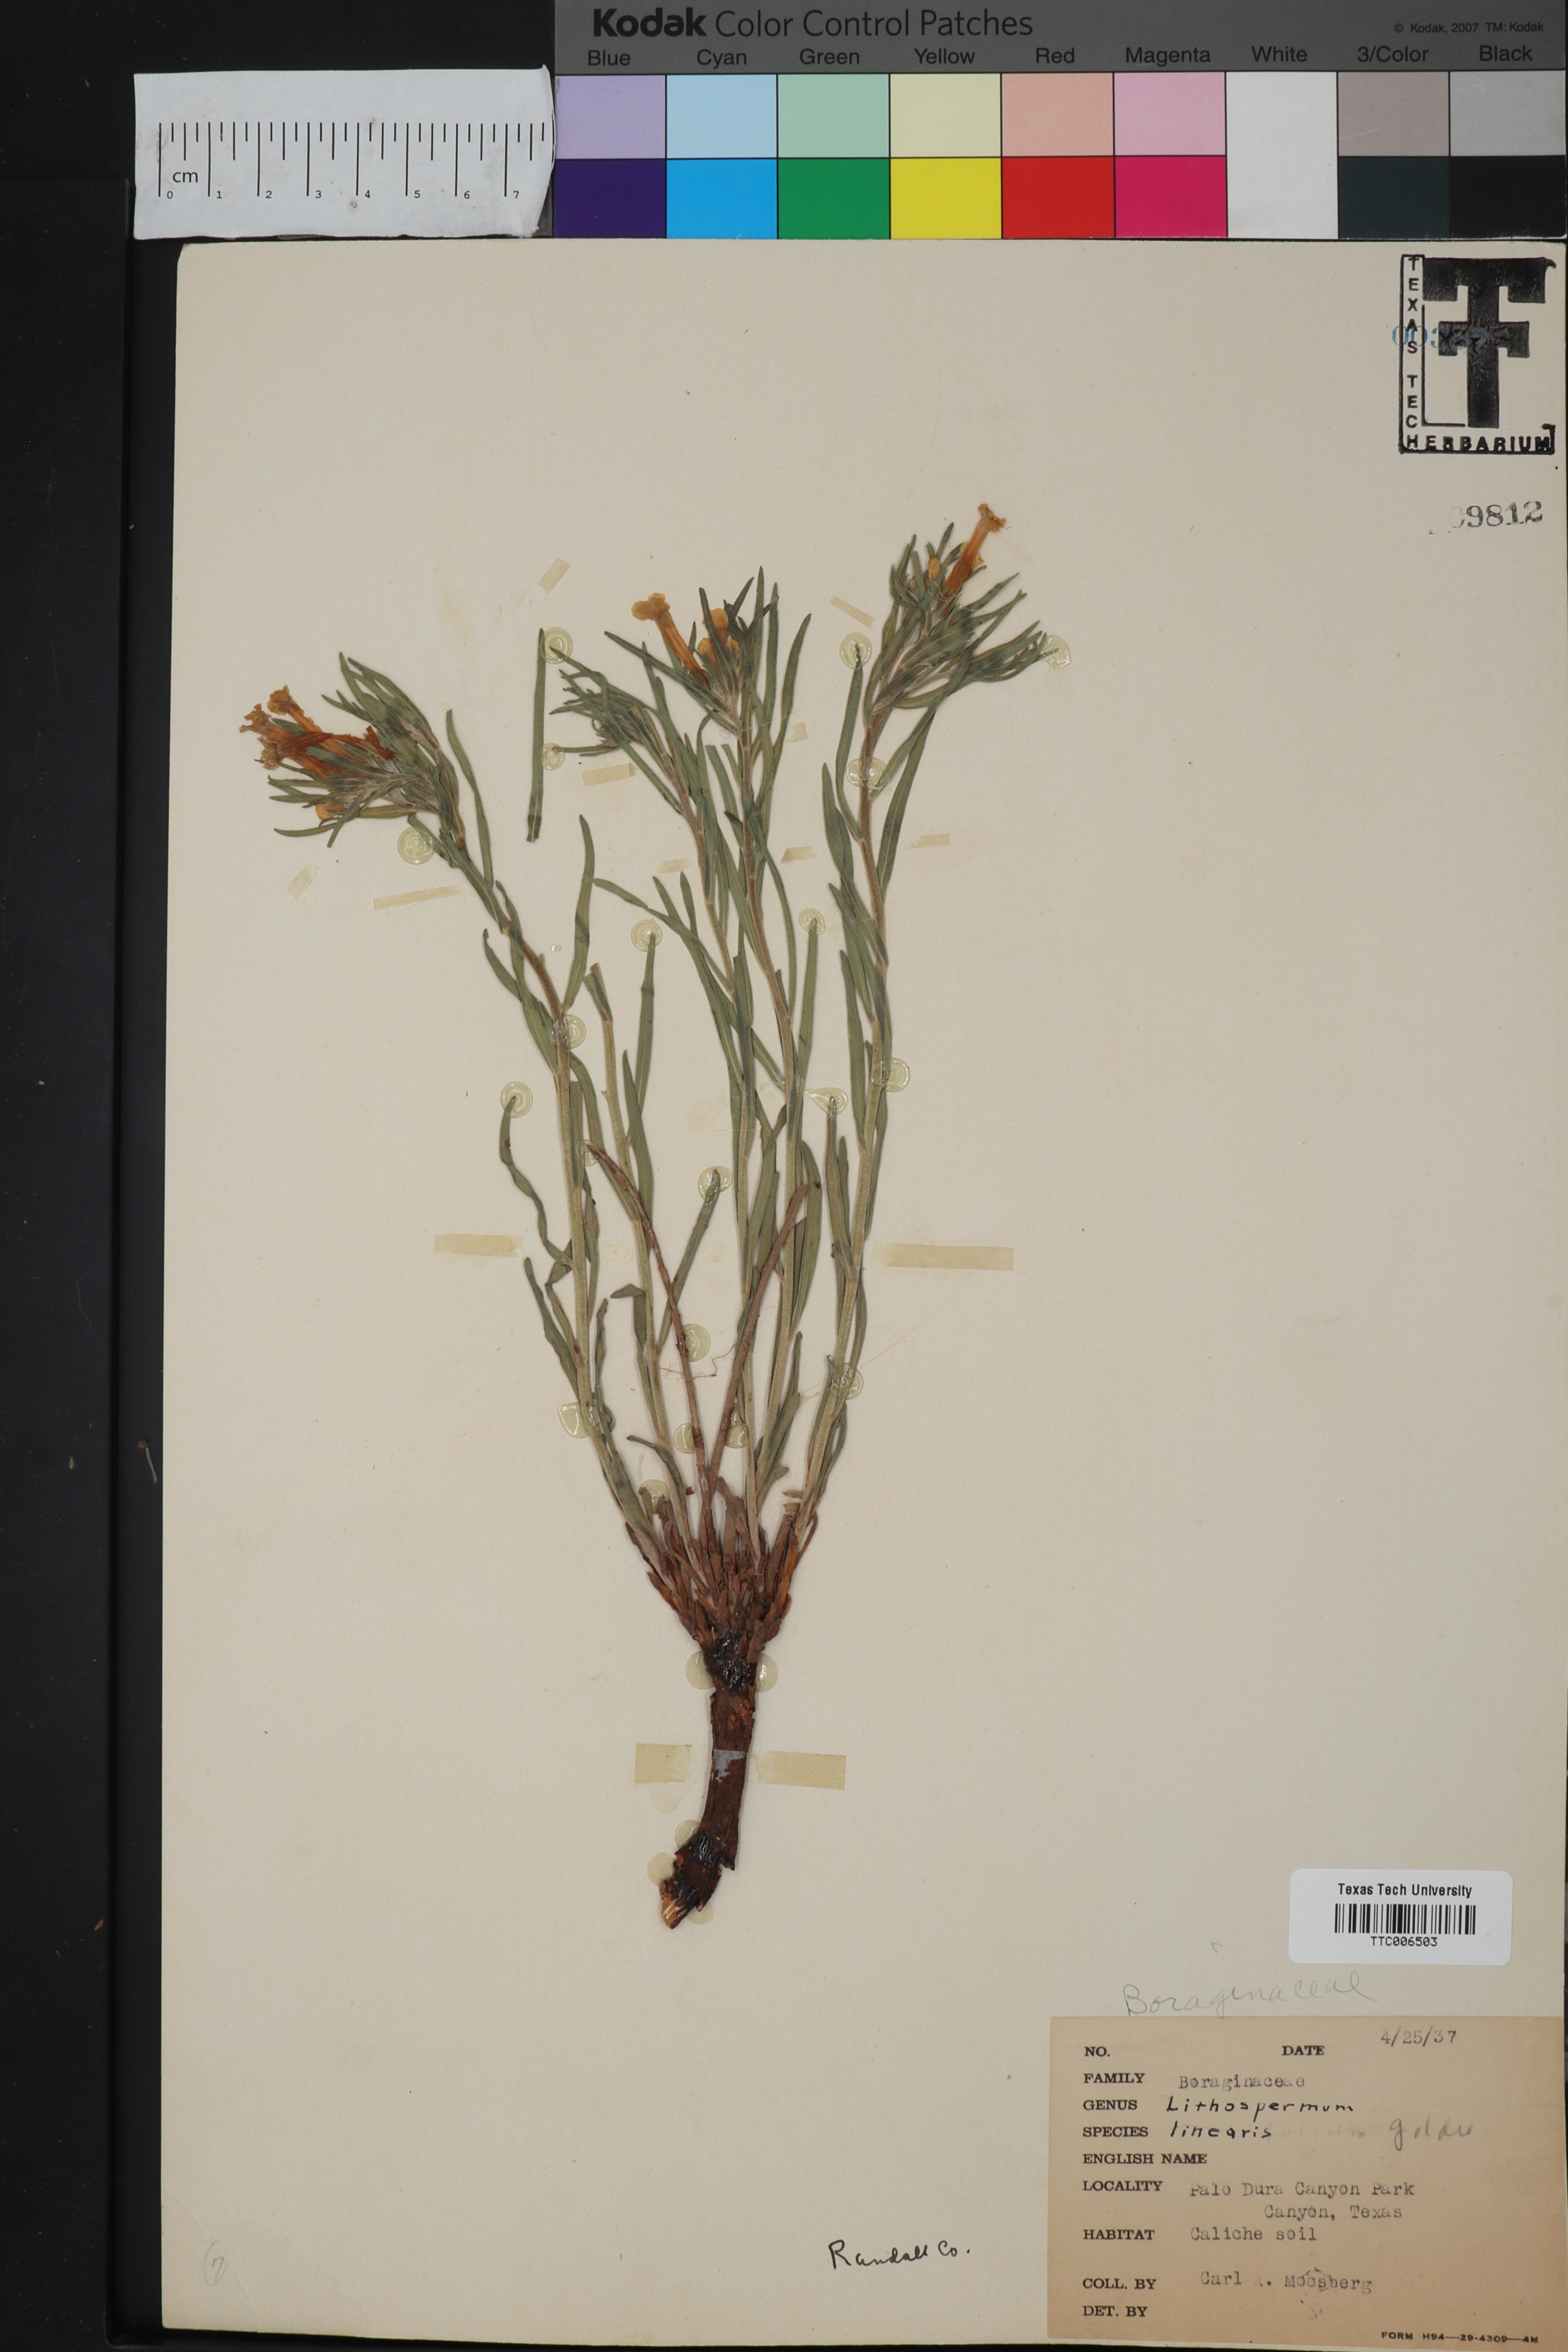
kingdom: Plantae
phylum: Tracheophyta
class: Magnoliopsida
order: Boraginales
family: Boraginaceae
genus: Lithospermum
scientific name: Lithospermum
